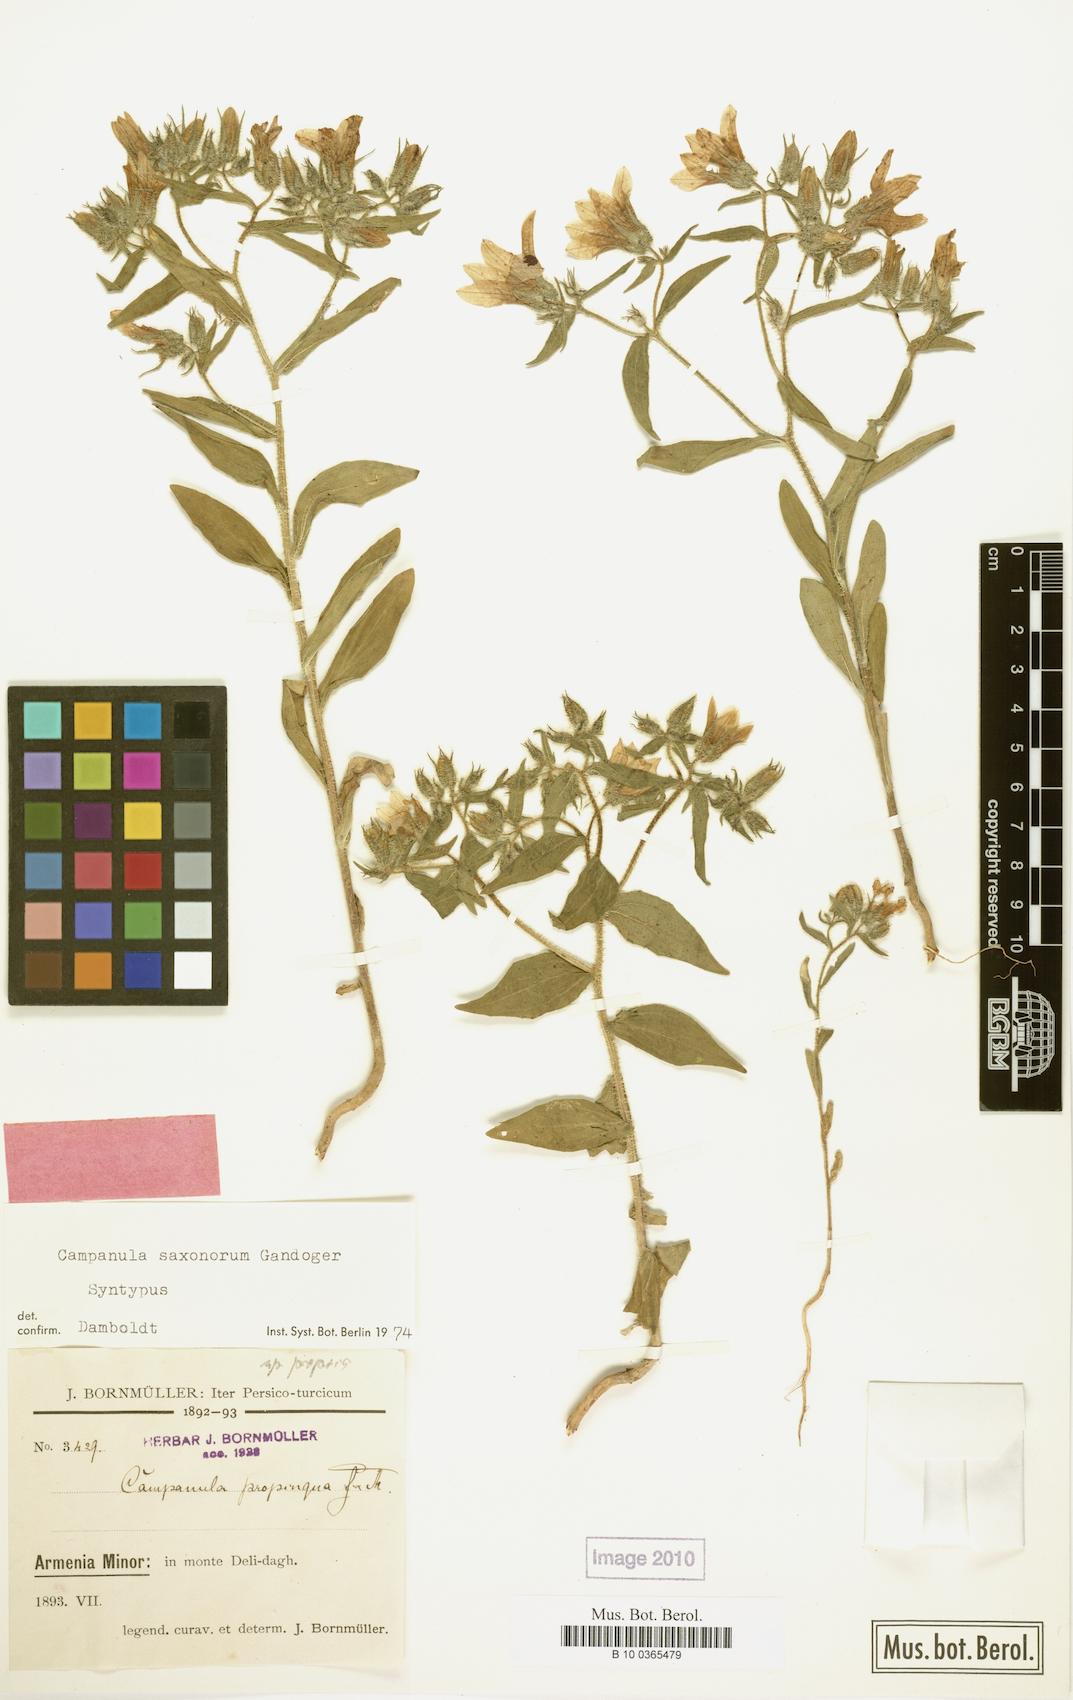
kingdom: Plantae
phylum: Tracheophyta
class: Magnoliopsida
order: Asterales
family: Campanulaceae
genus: Campanula
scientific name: Campanula saxonorum
